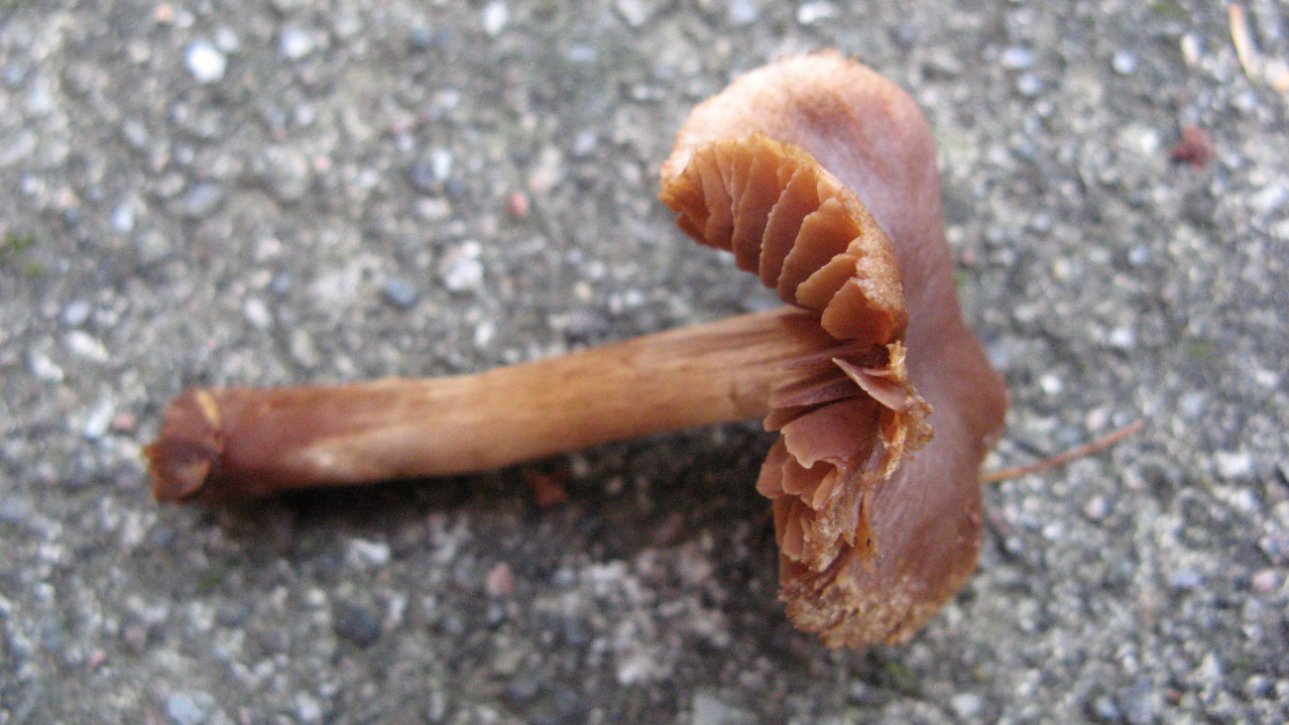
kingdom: Fungi
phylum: Basidiomycota
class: Agaricomycetes
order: Agaricales
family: Cortinariaceae
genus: Cortinarius
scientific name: Cortinarius
